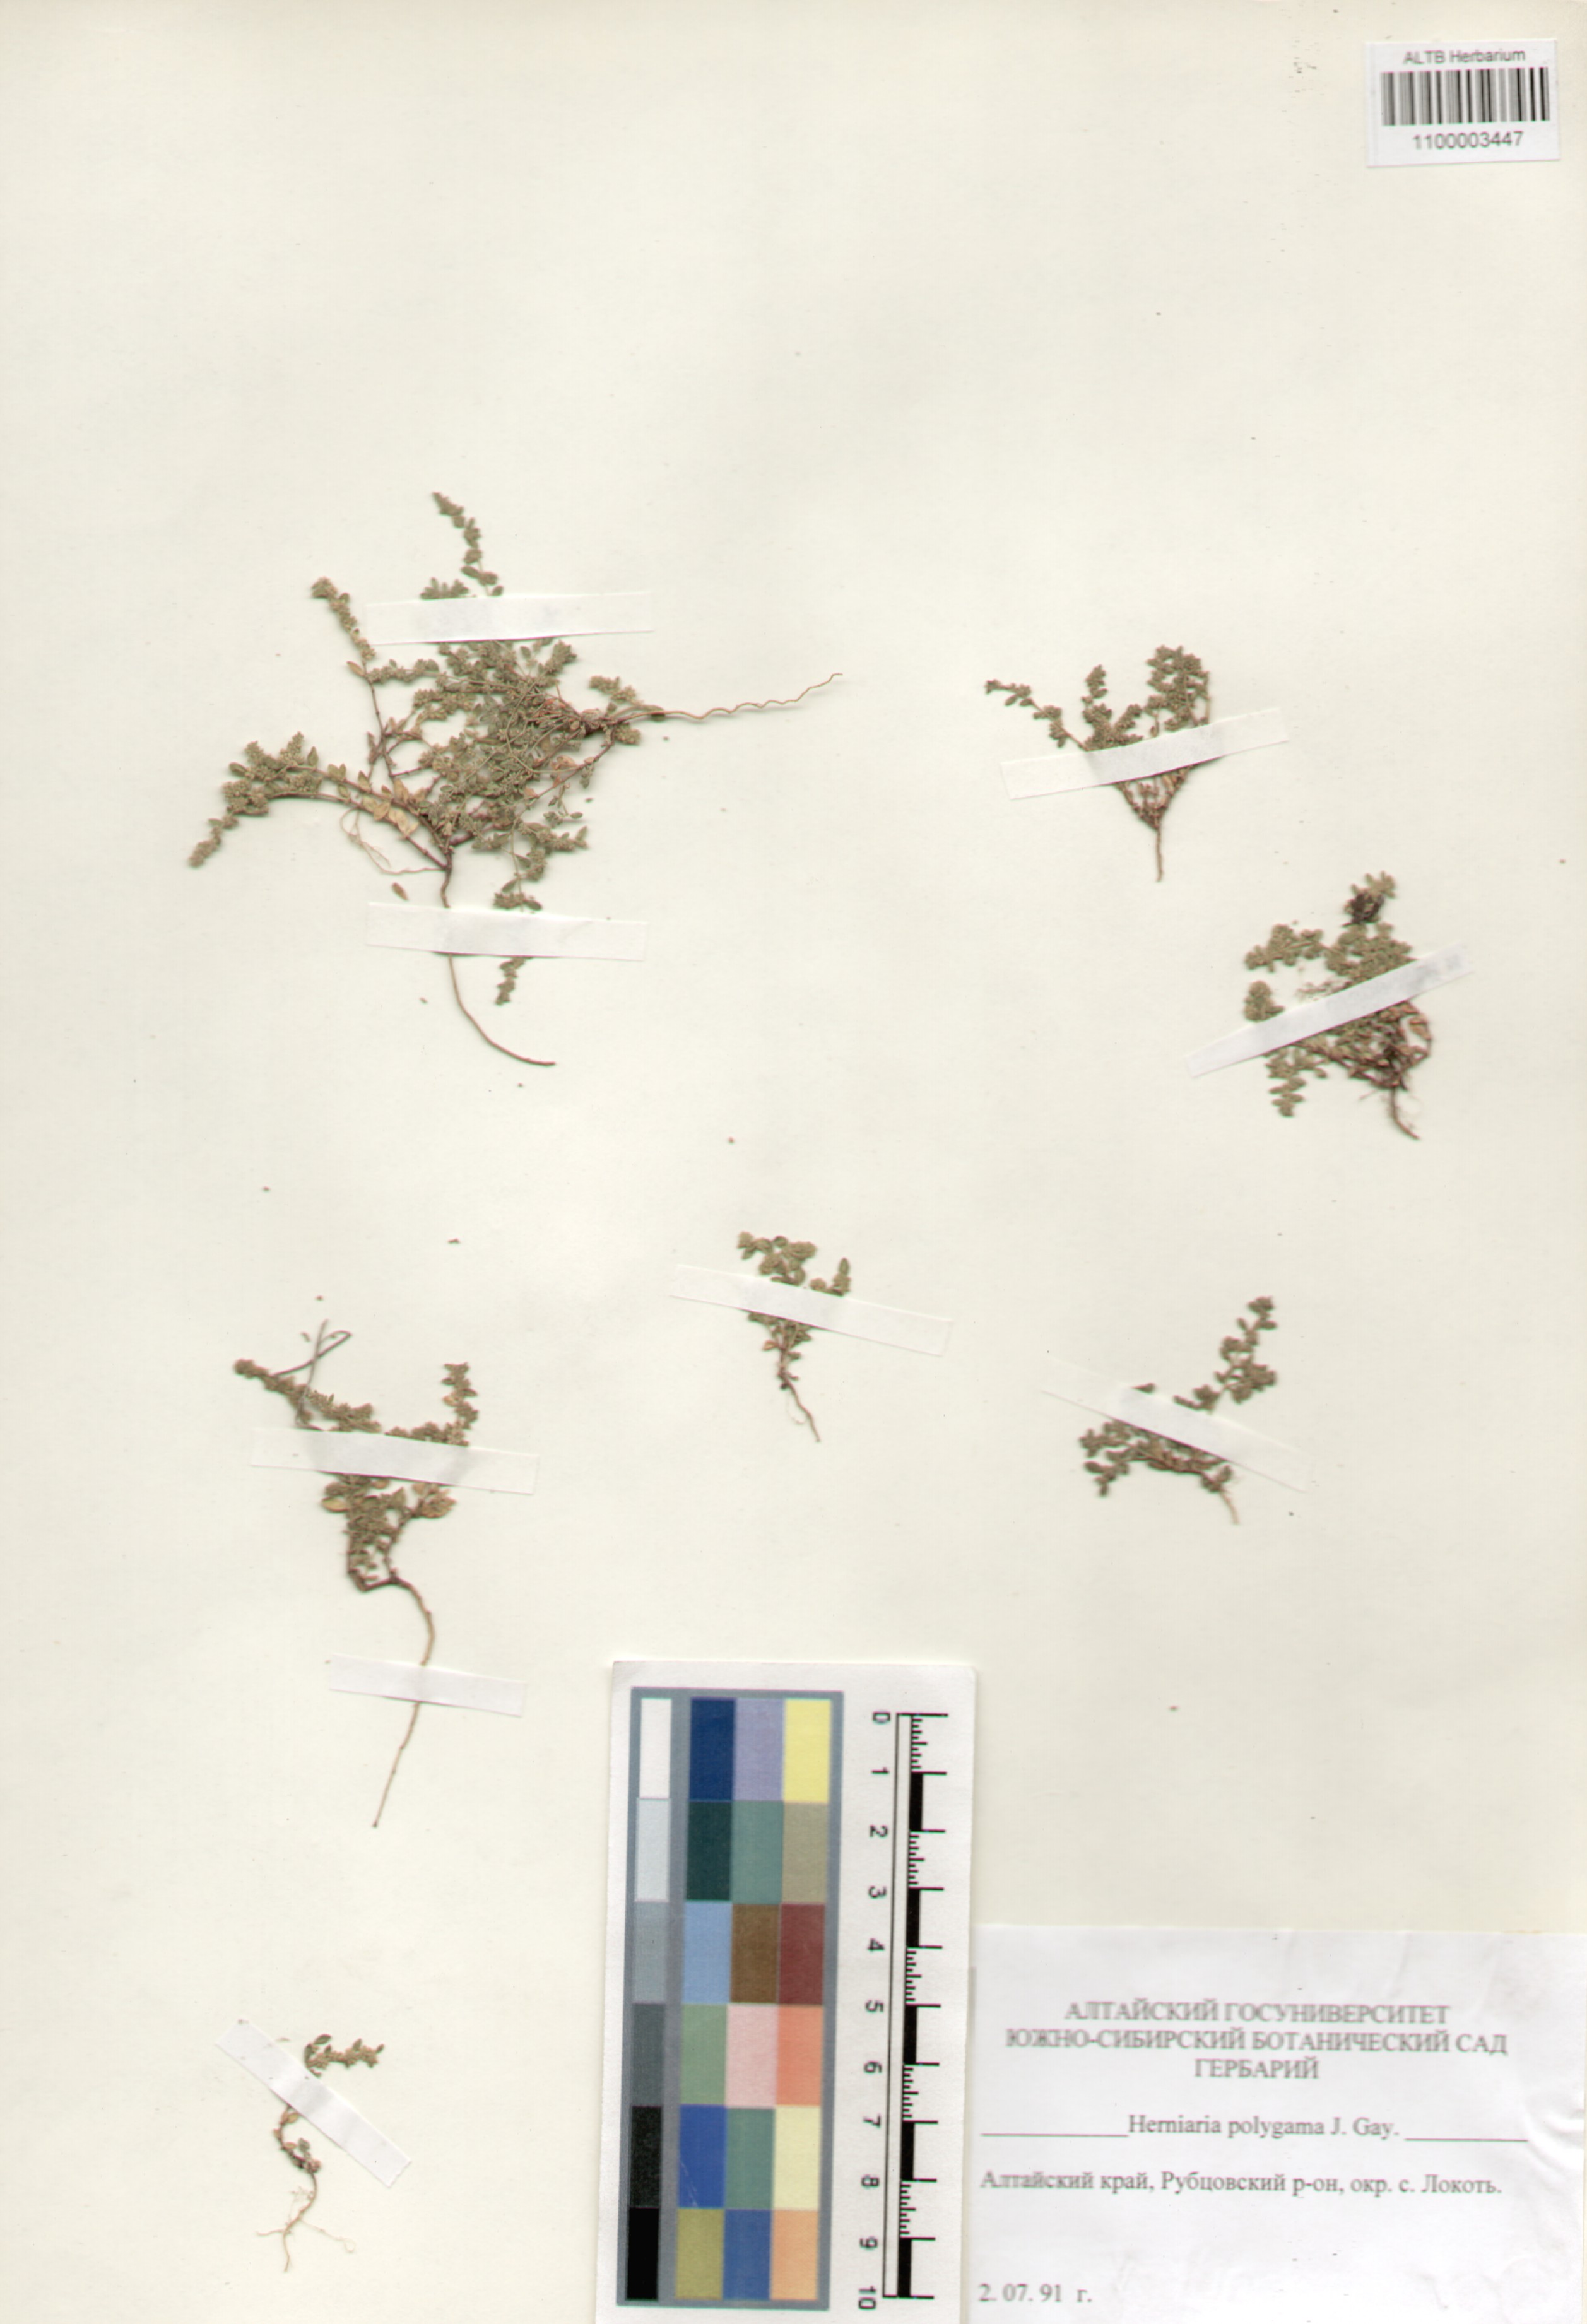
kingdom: Plantae
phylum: Tracheophyta
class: Magnoliopsida
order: Caryophyllales
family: Caryophyllaceae
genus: Herniaria
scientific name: Herniaria polygama
